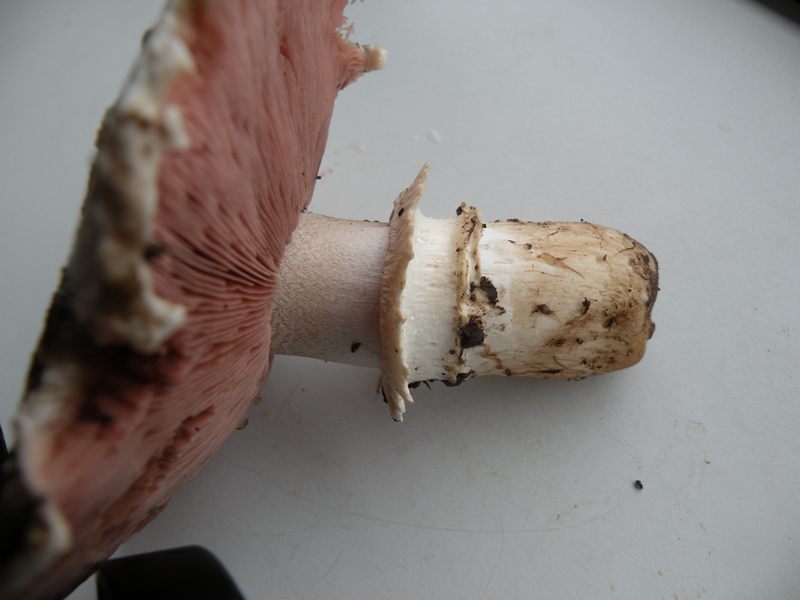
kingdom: Fungi
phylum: Basidiomycota
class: Agaricomycetes
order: Agaricales
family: Agaricaceae
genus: Agaricus
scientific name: Agaricus bitorquis
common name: vej-champignon
